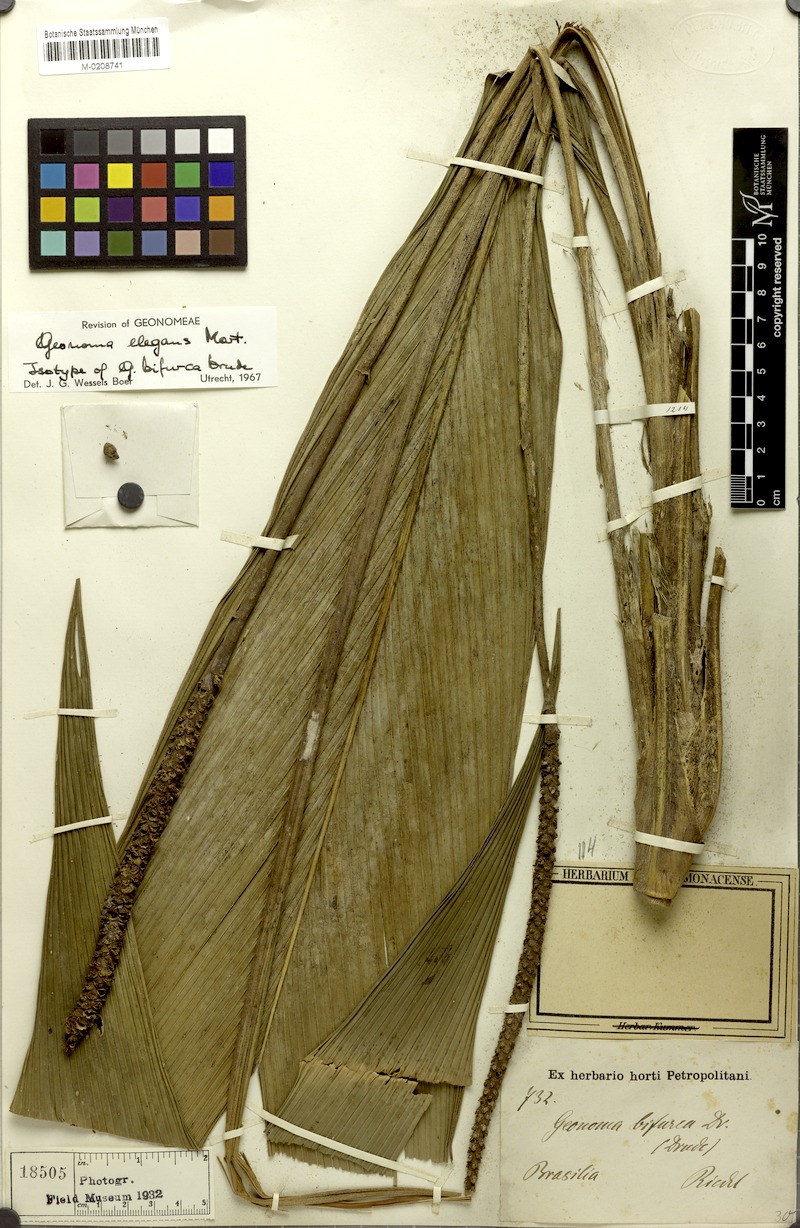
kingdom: Plantae
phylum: Tracheophyta
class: Liliopsida
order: Arecales
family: Arecaceae
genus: Geonoma
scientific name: Geonoma elegans
